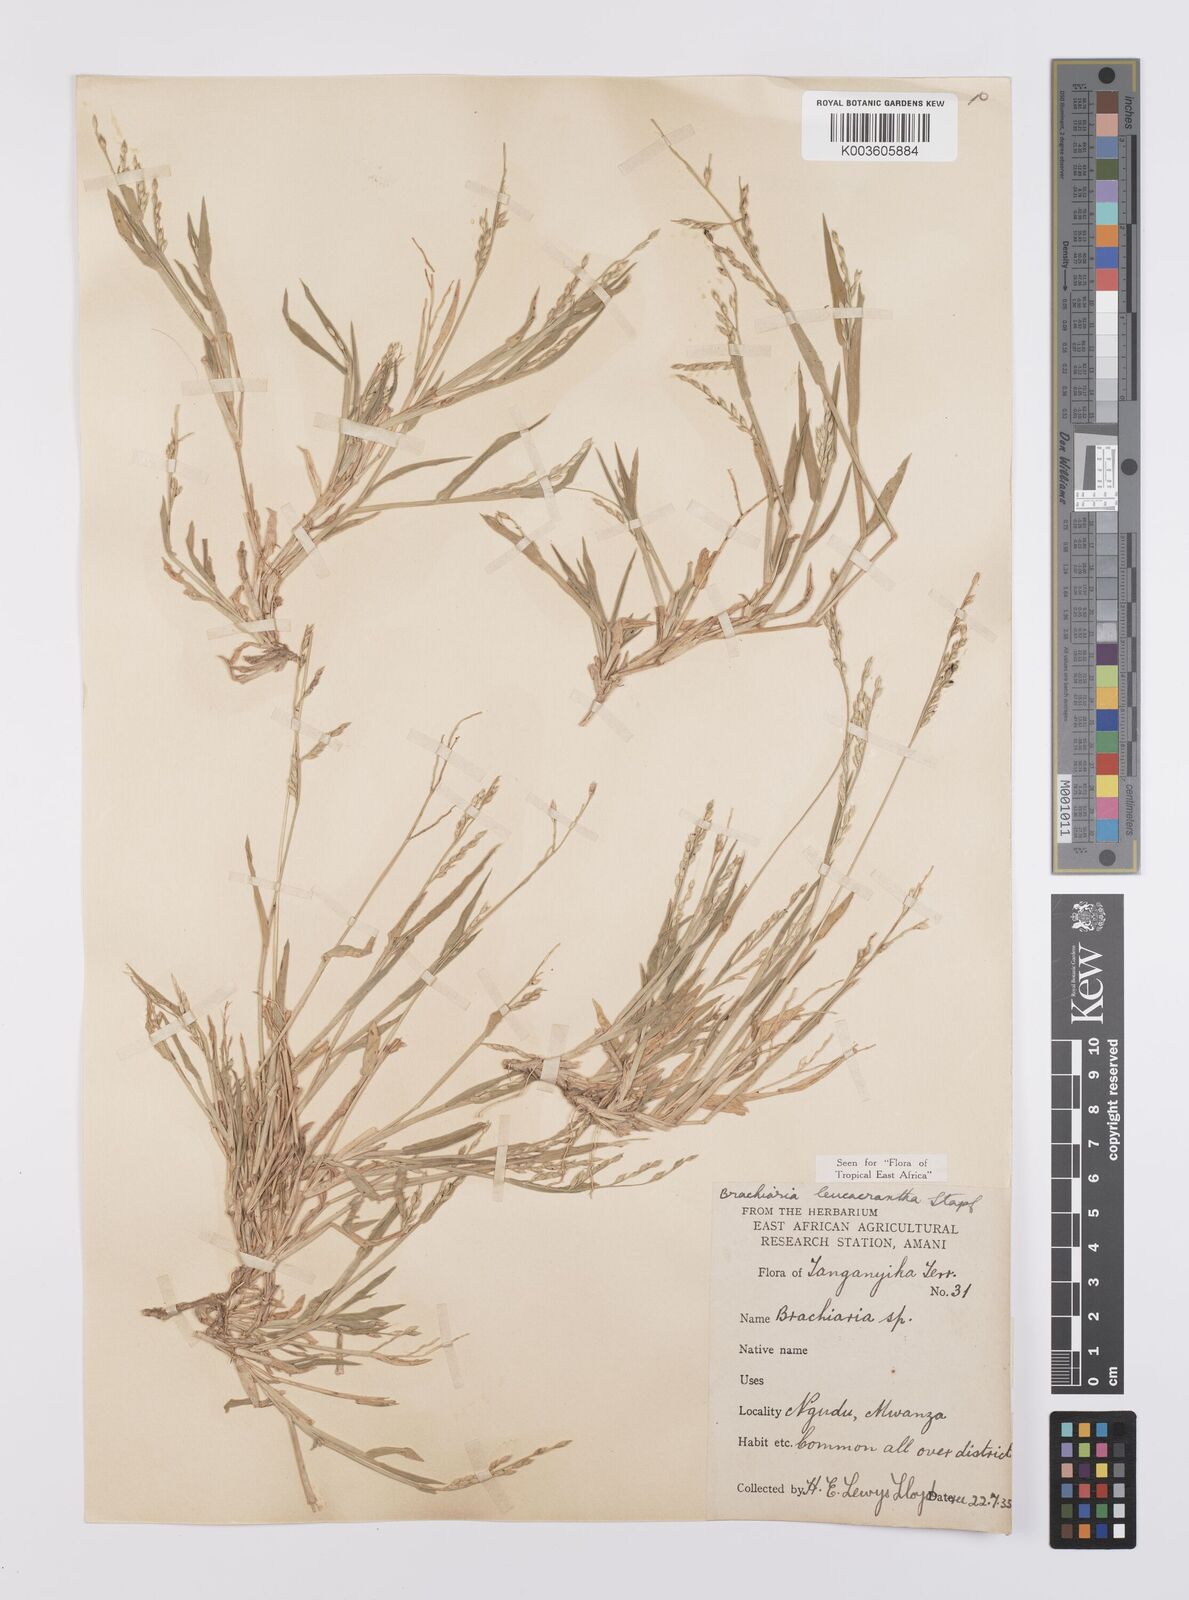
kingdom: Plantae
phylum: Tracheophyta
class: Liliopsida
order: Poales
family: Poaceae
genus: Urochloa
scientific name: Urochloa xantholeuca
